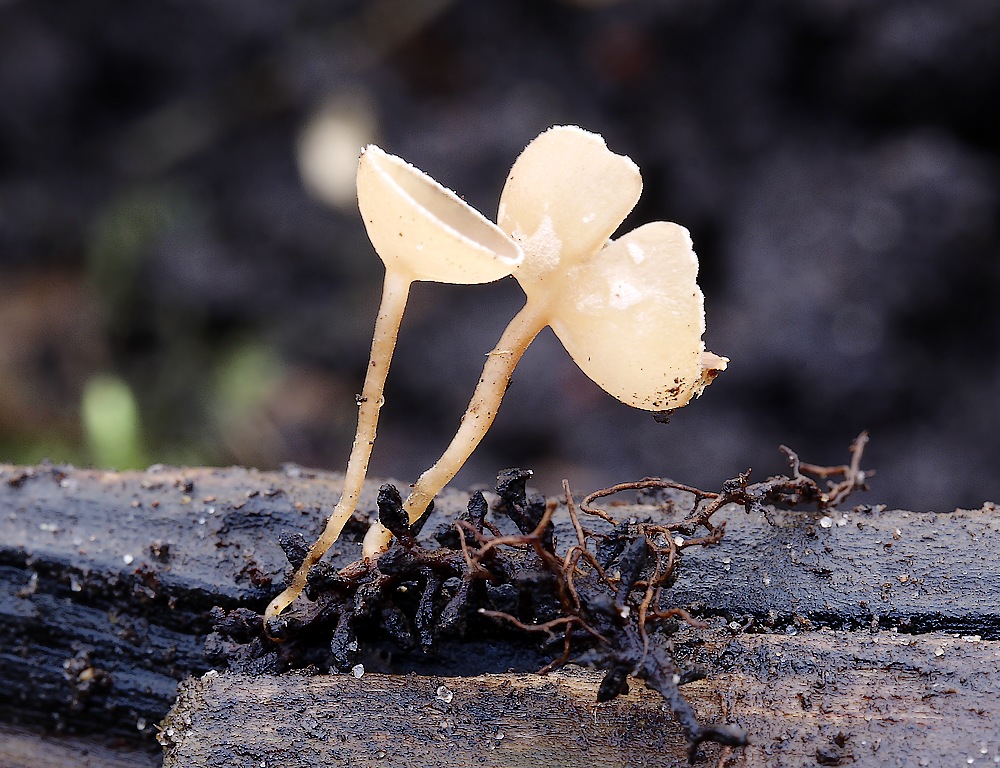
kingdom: Fungi
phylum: Ascomycota
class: Leotiomycetes
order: Helotiales
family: Sclerotiniaceae
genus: Ciboria
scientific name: Ciboria amentacea
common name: ellerakle-knoldskive
